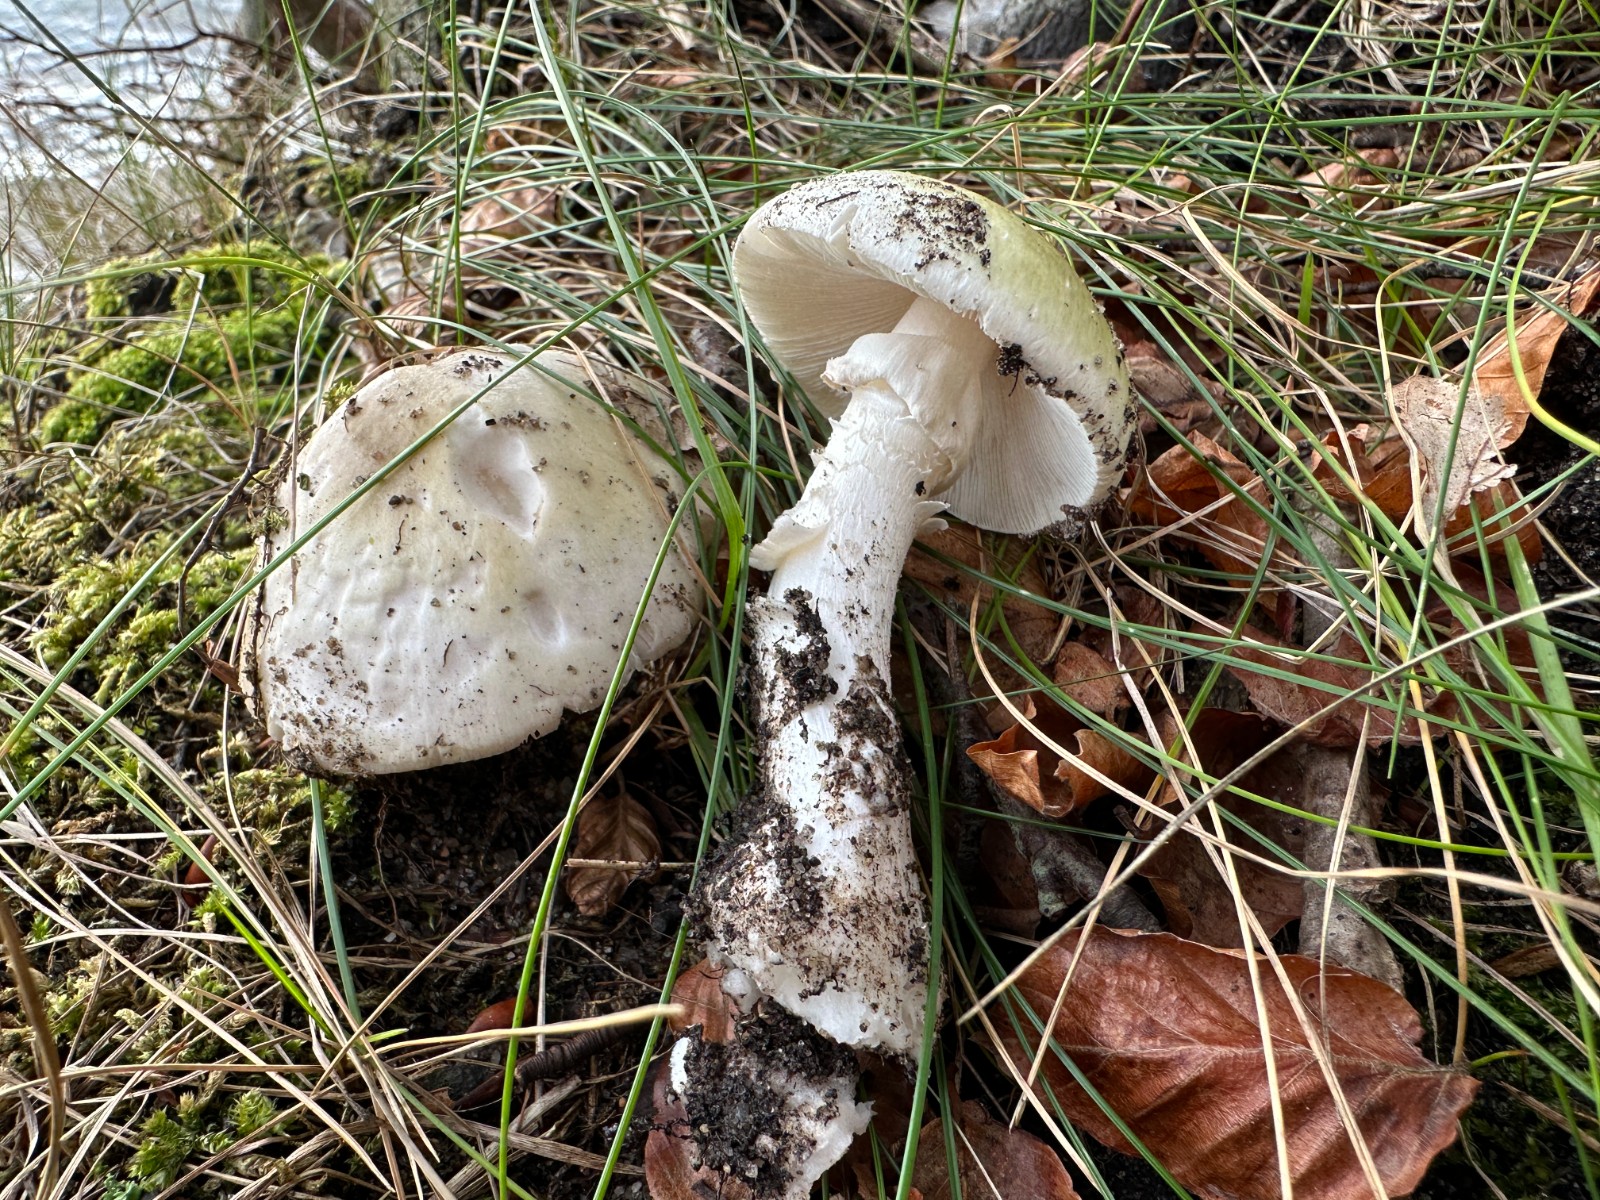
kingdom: Fungi
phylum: Basidiomycota
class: Agaricomycetes
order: Agaricales
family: Amanitaceae
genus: Amanita
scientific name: Amanita phalloides
